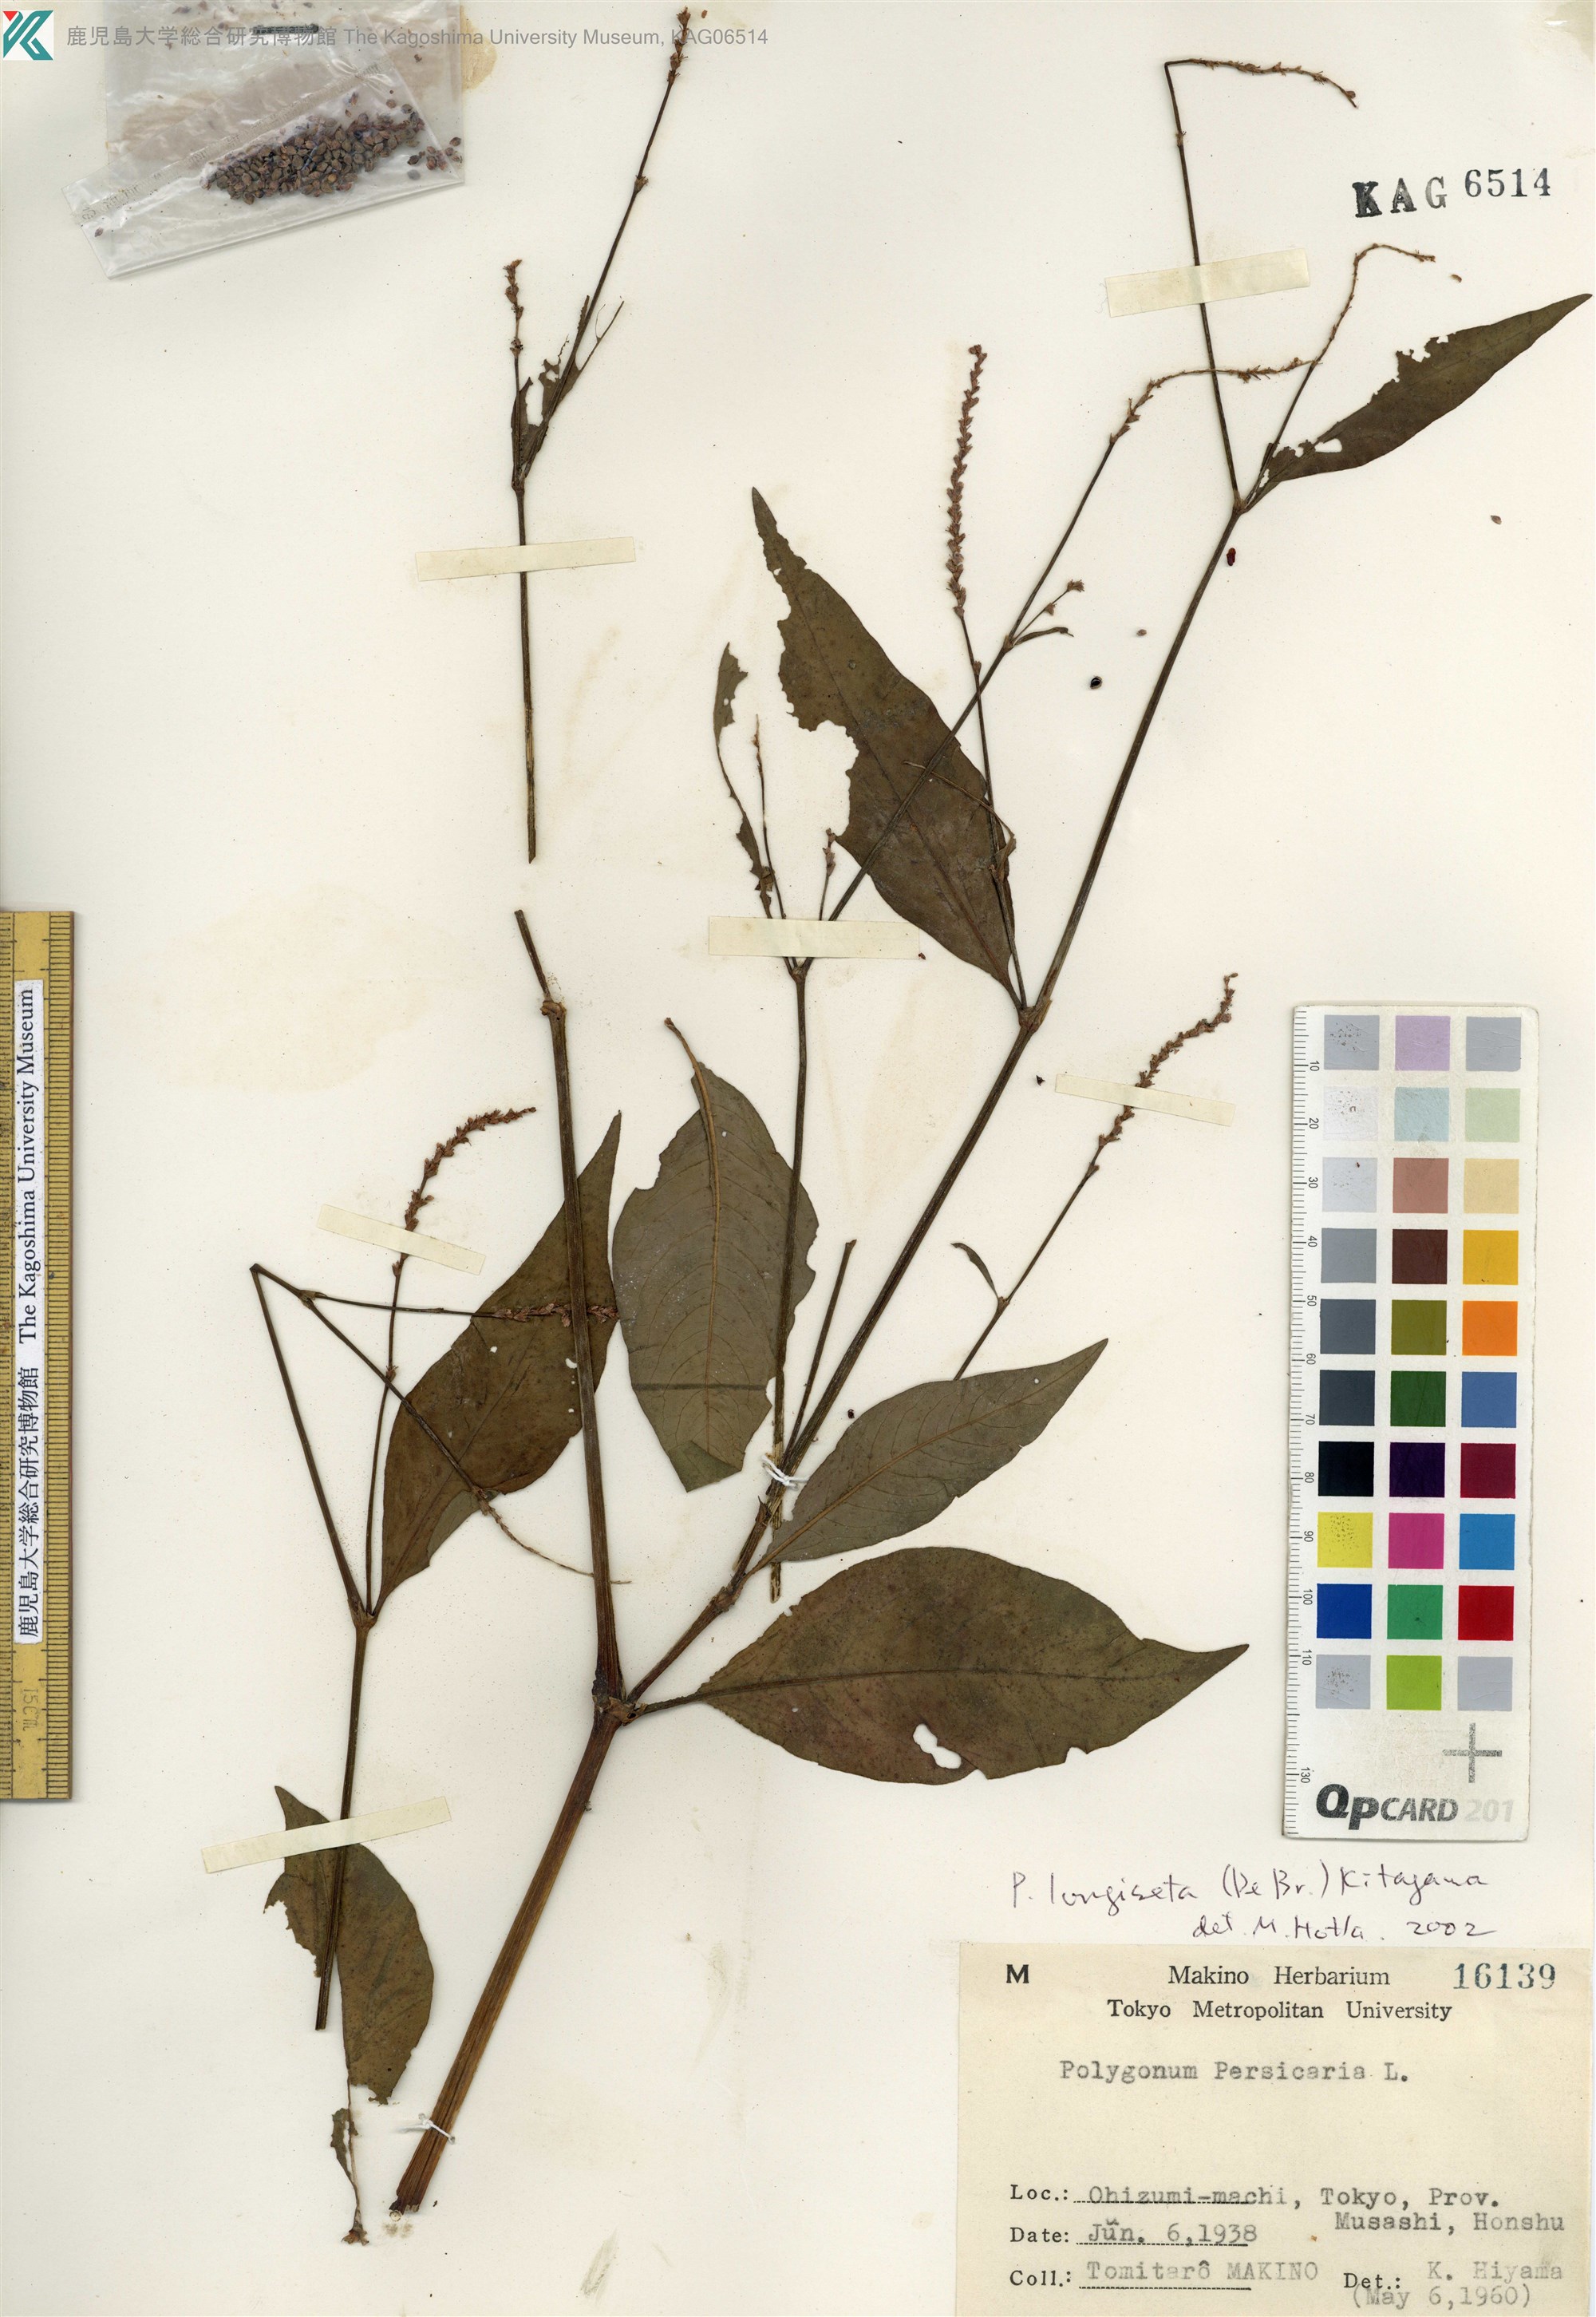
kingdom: Plantae
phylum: Tracheophyta
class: Magnoliopsida
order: Caryophyllales
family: Polygonaceae
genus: Persicaria
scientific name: Persicaria longiseta
